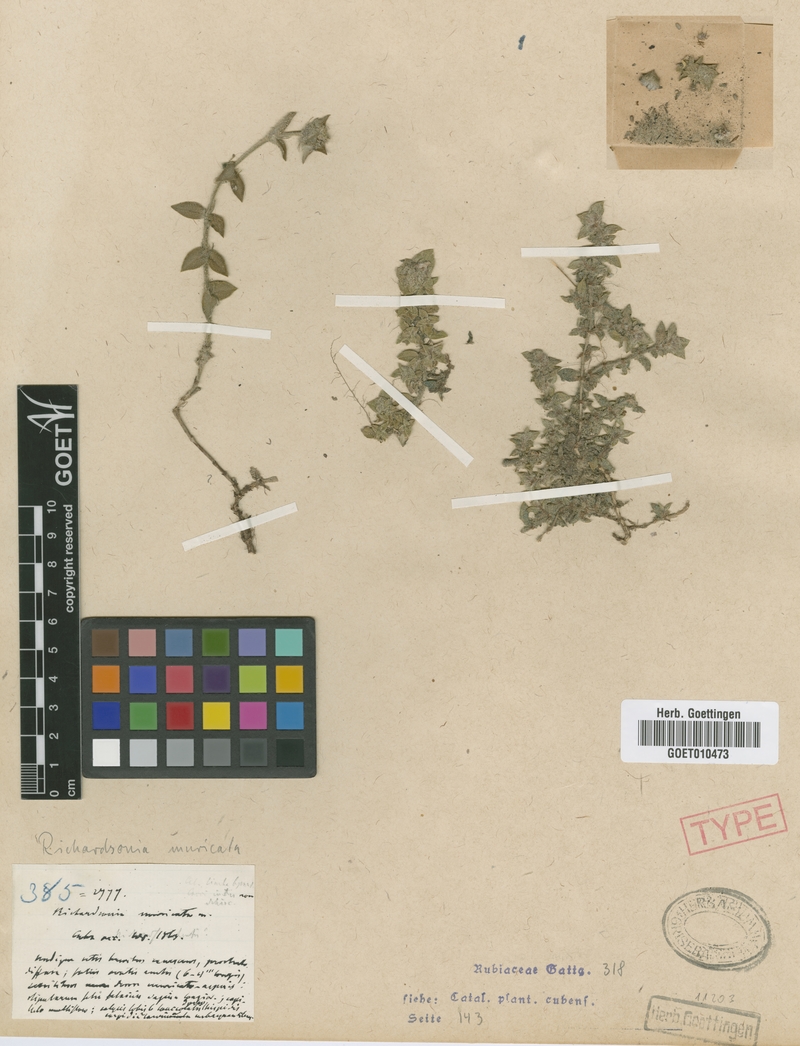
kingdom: Plantae
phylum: Tracheophyta
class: Magnoliopsida
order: Gentianales
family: Rubiaceae
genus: Richardia
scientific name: Richardia muricata
